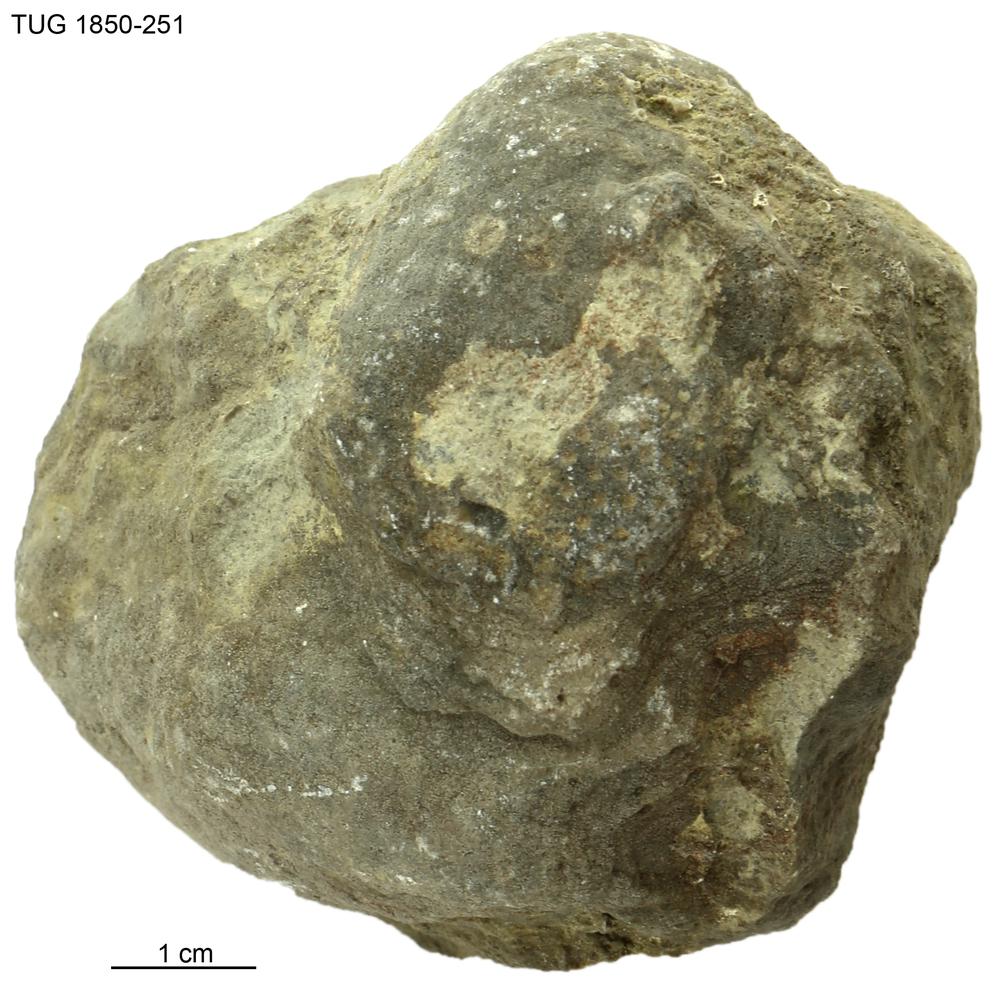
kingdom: Animalia
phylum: Porifera
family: Stromatoporidae
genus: Stromatopora
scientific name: Stromatopora
